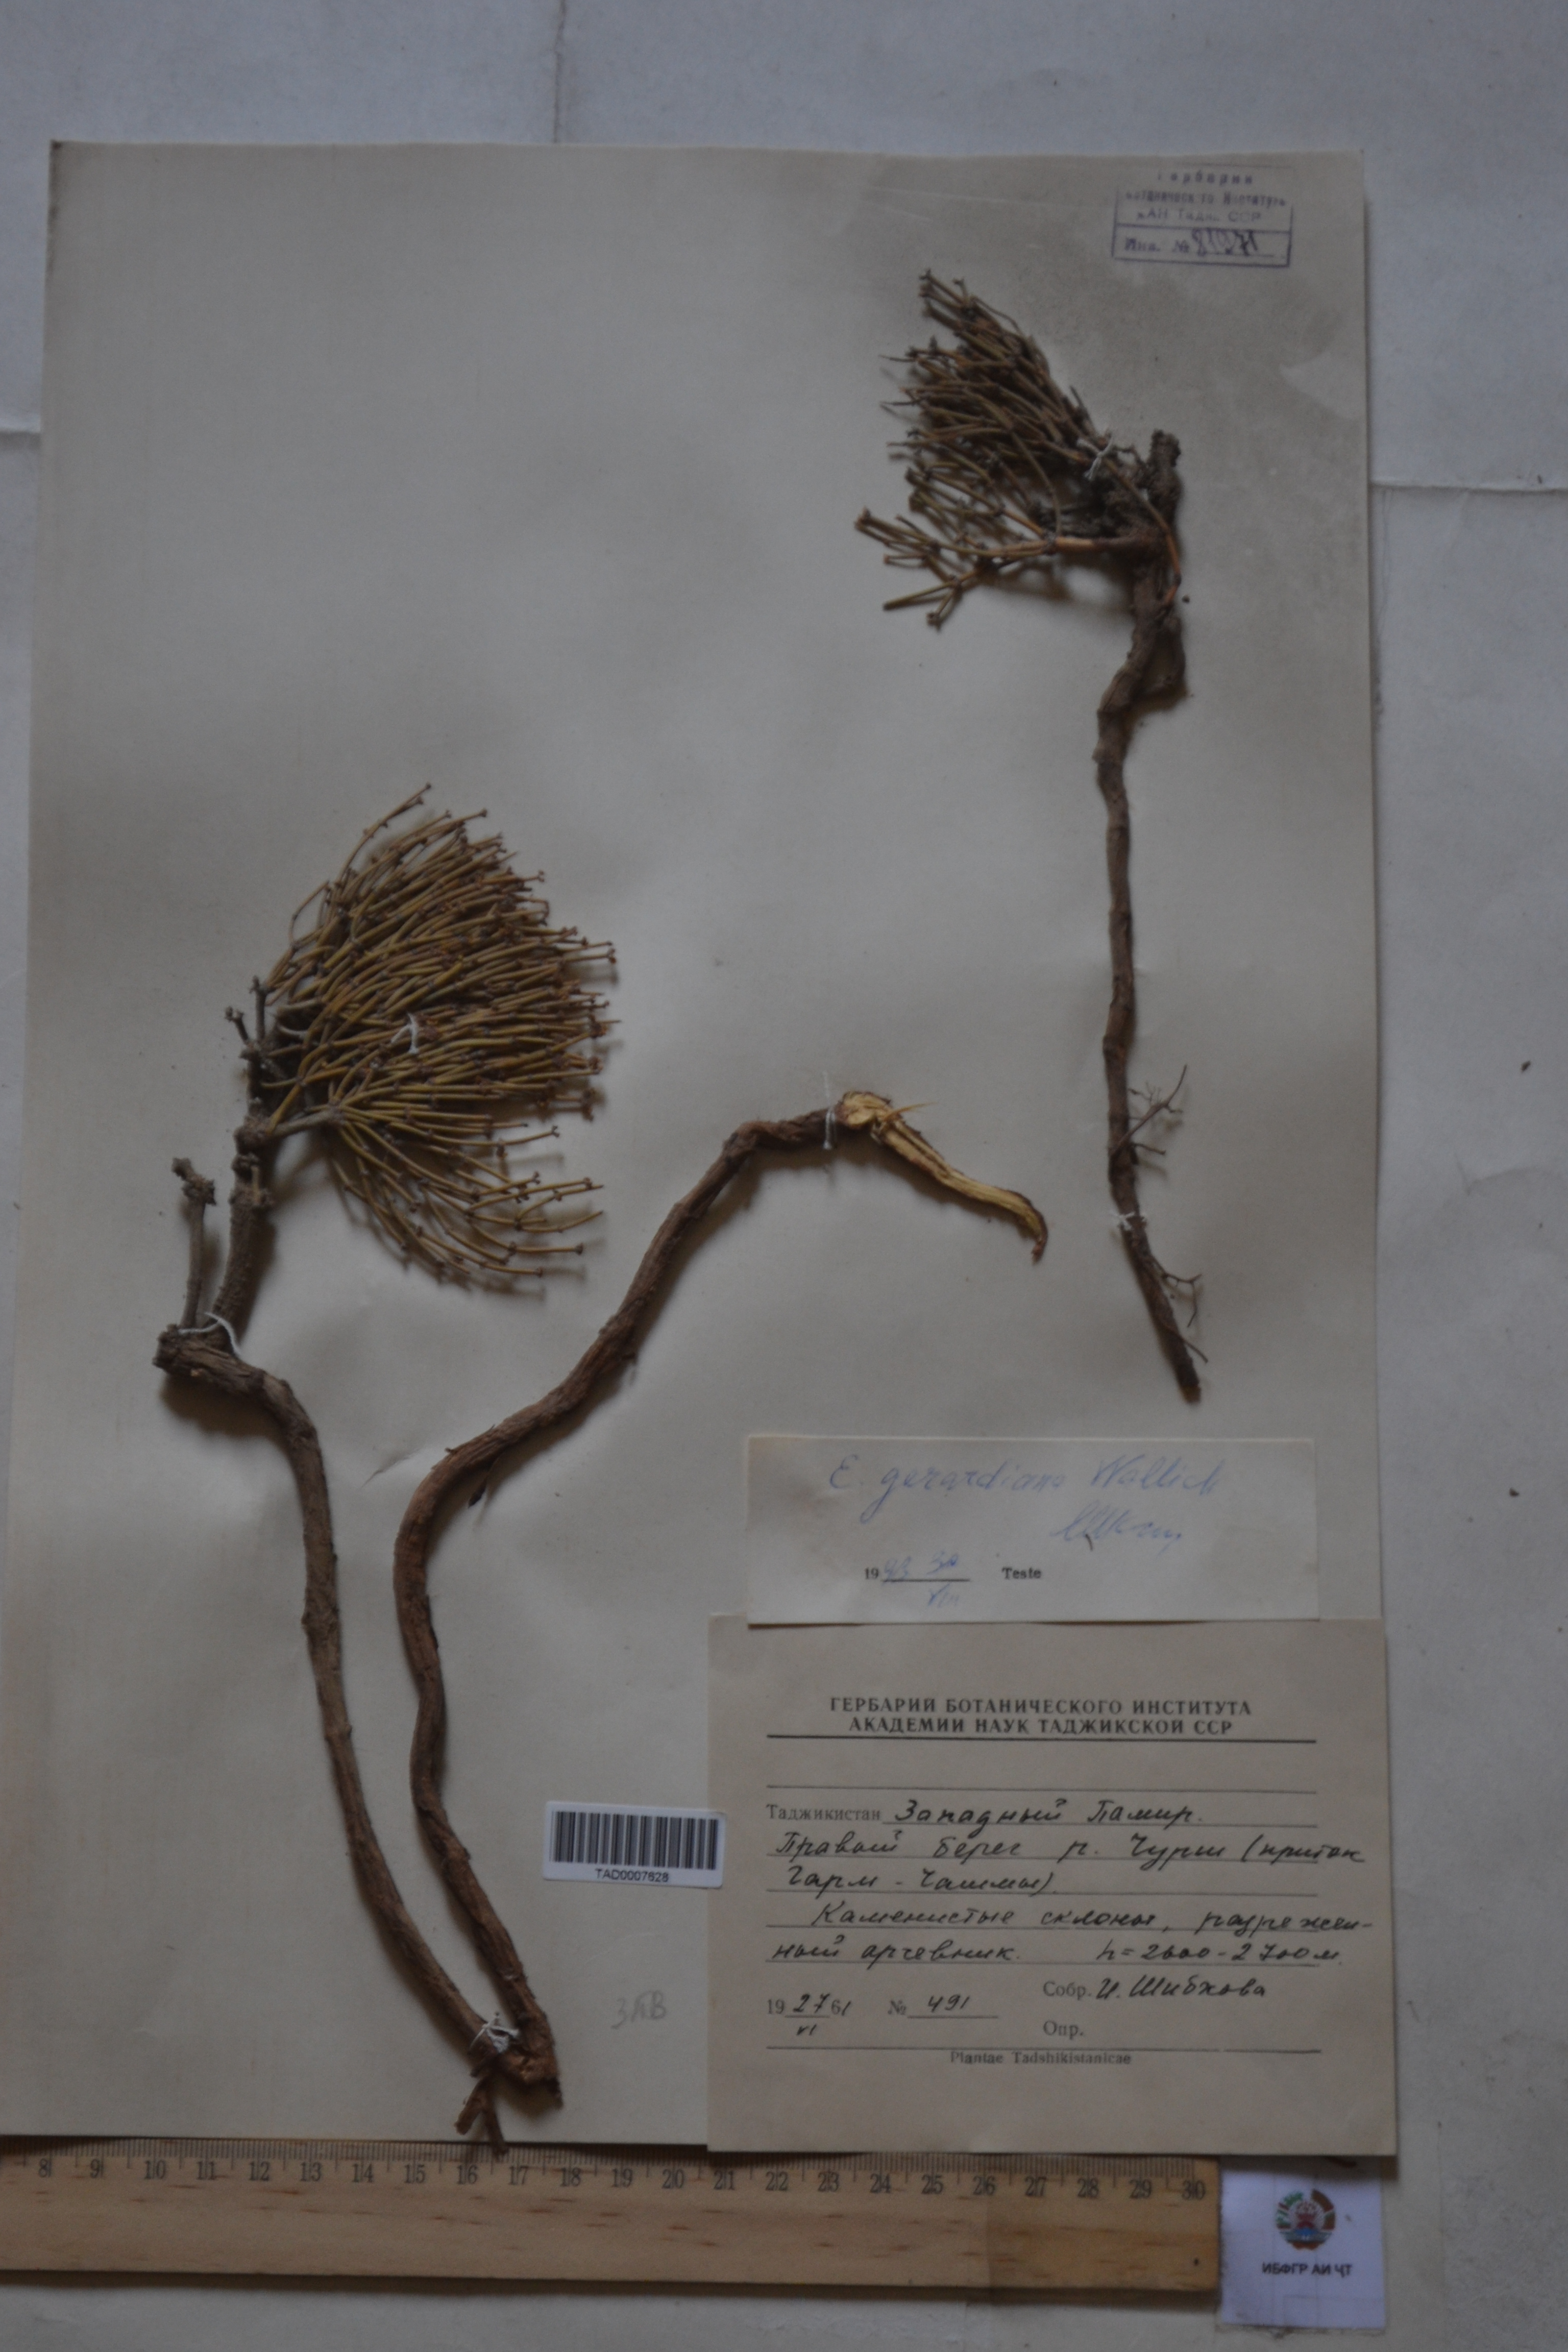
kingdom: Plantae
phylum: Tracheophyta
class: Gnetopsida
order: Ephedrales
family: Ephedraceae
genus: Ephedra
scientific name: Ephedra gerardiana
